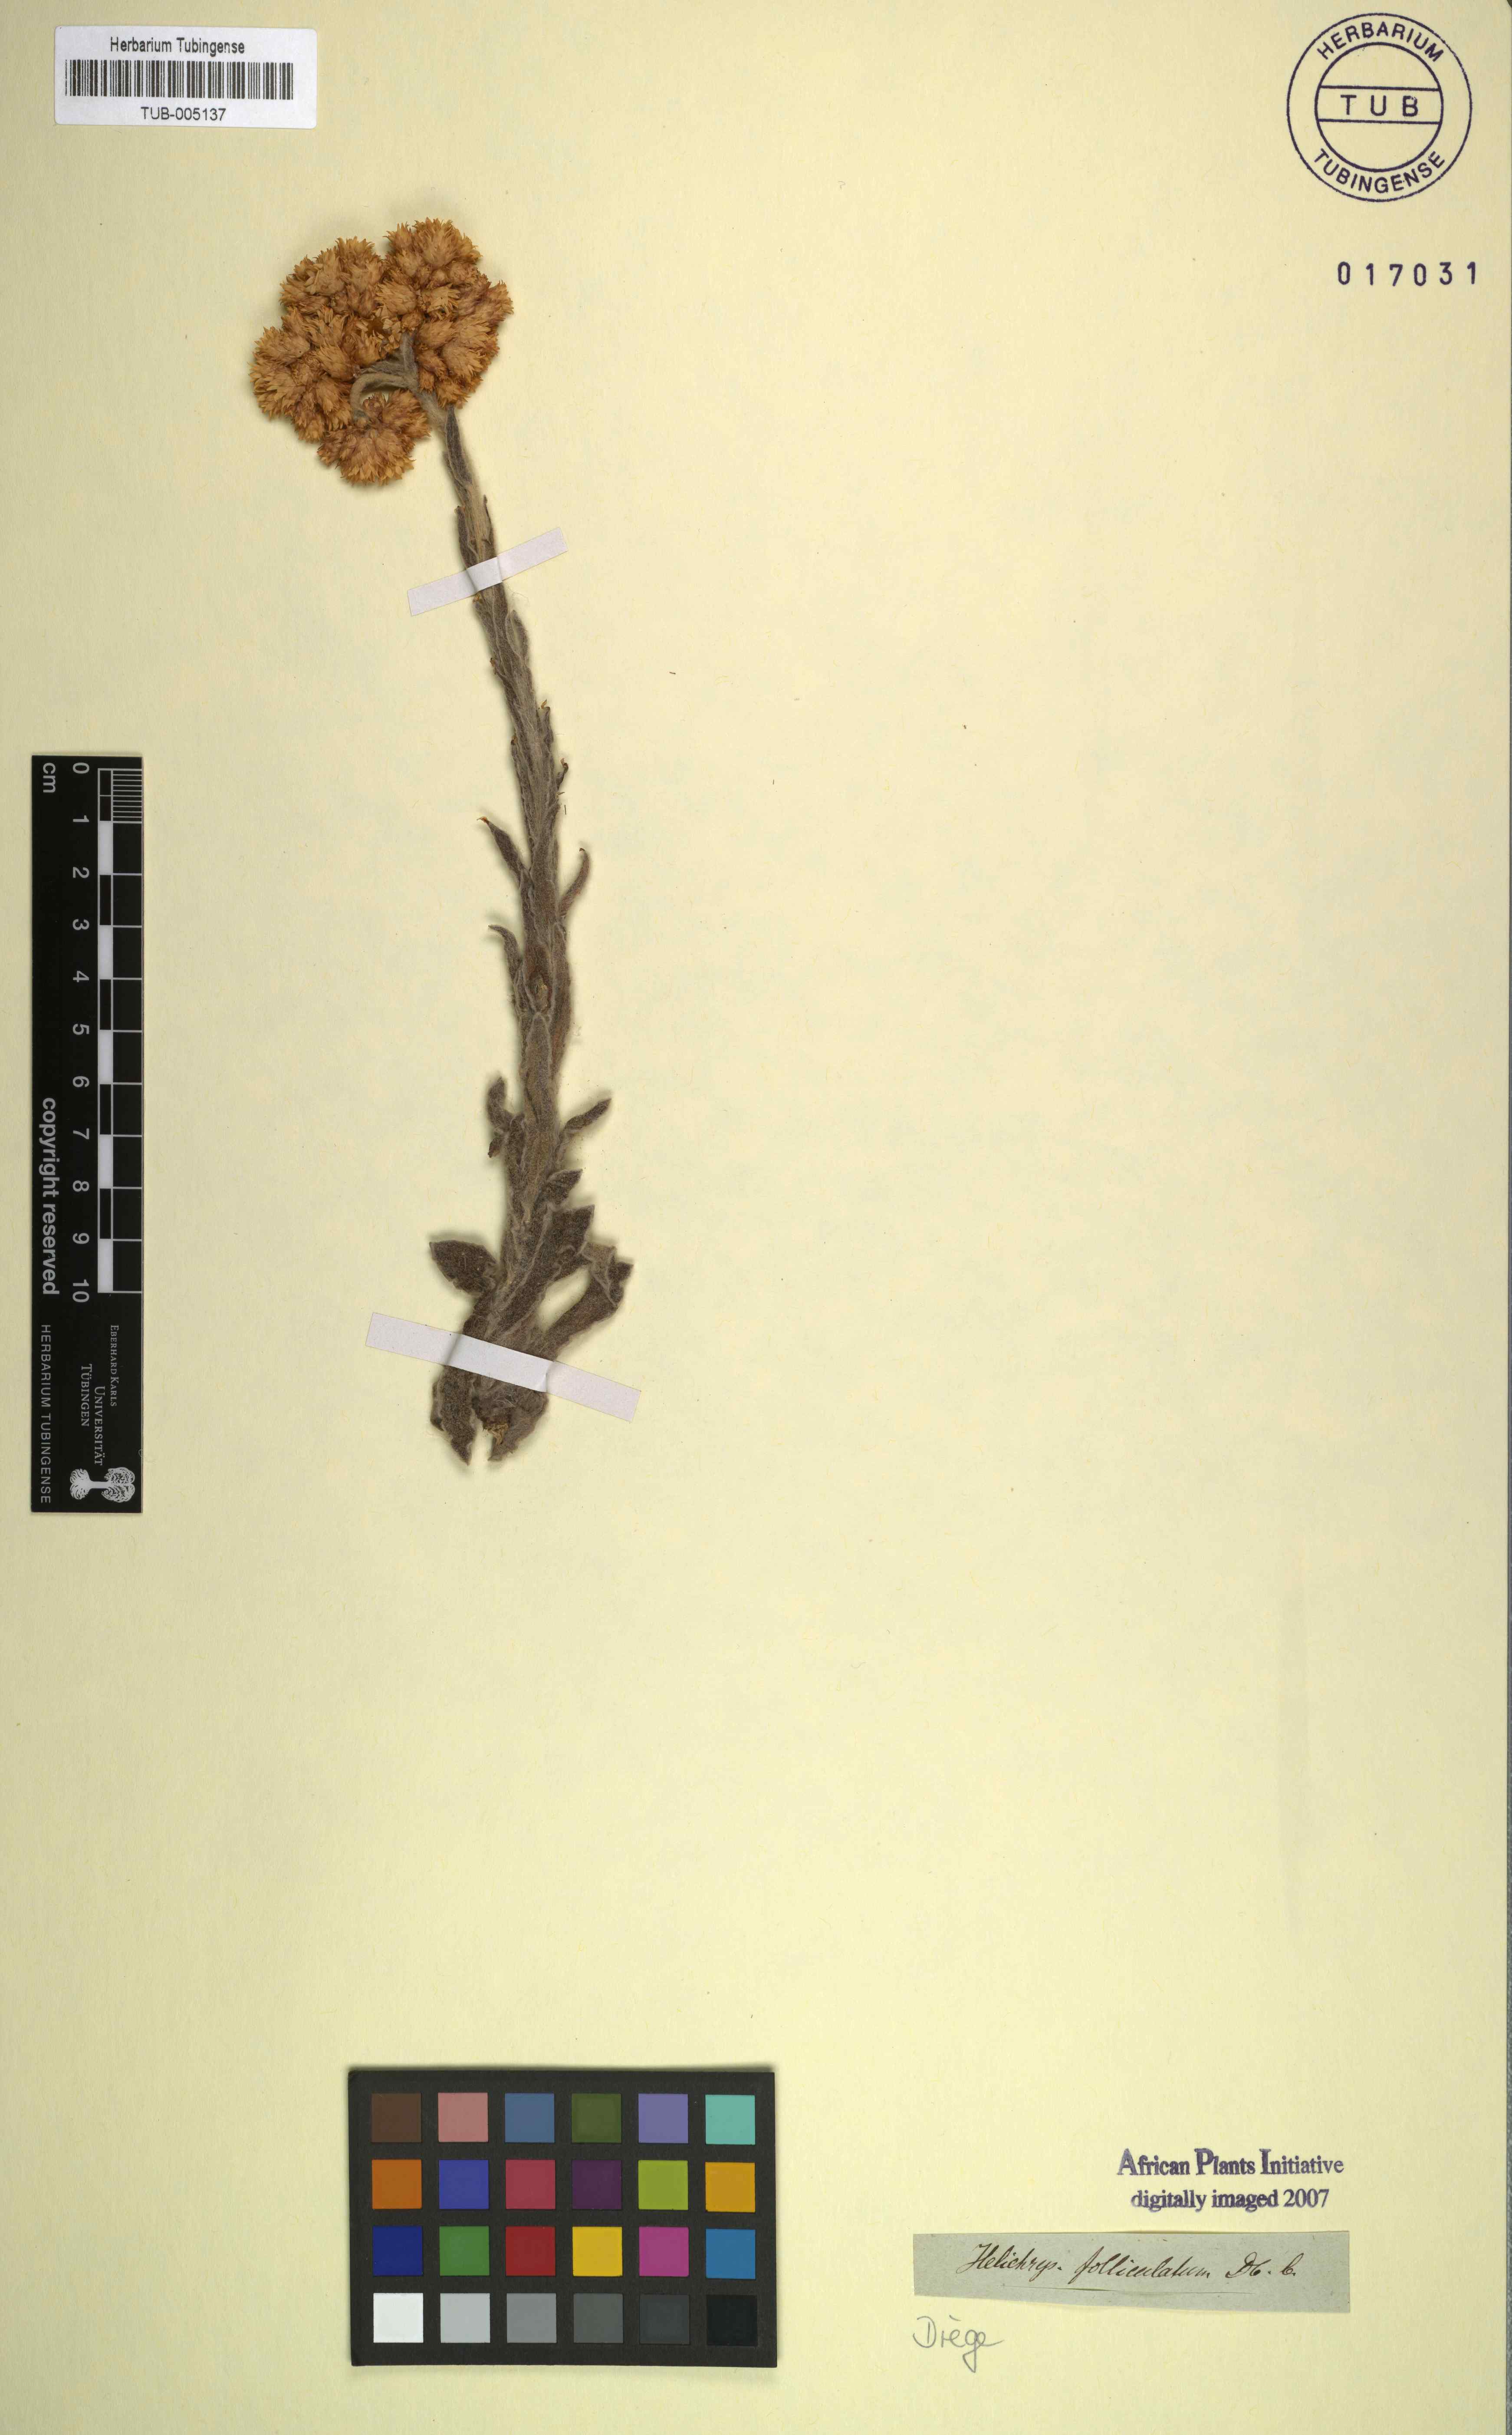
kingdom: Plantae
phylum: Tracheophyta
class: Magnoliopsida
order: Asterales
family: Asteraceae
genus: Helichrysum
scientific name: Helichrysum appendiculatum
